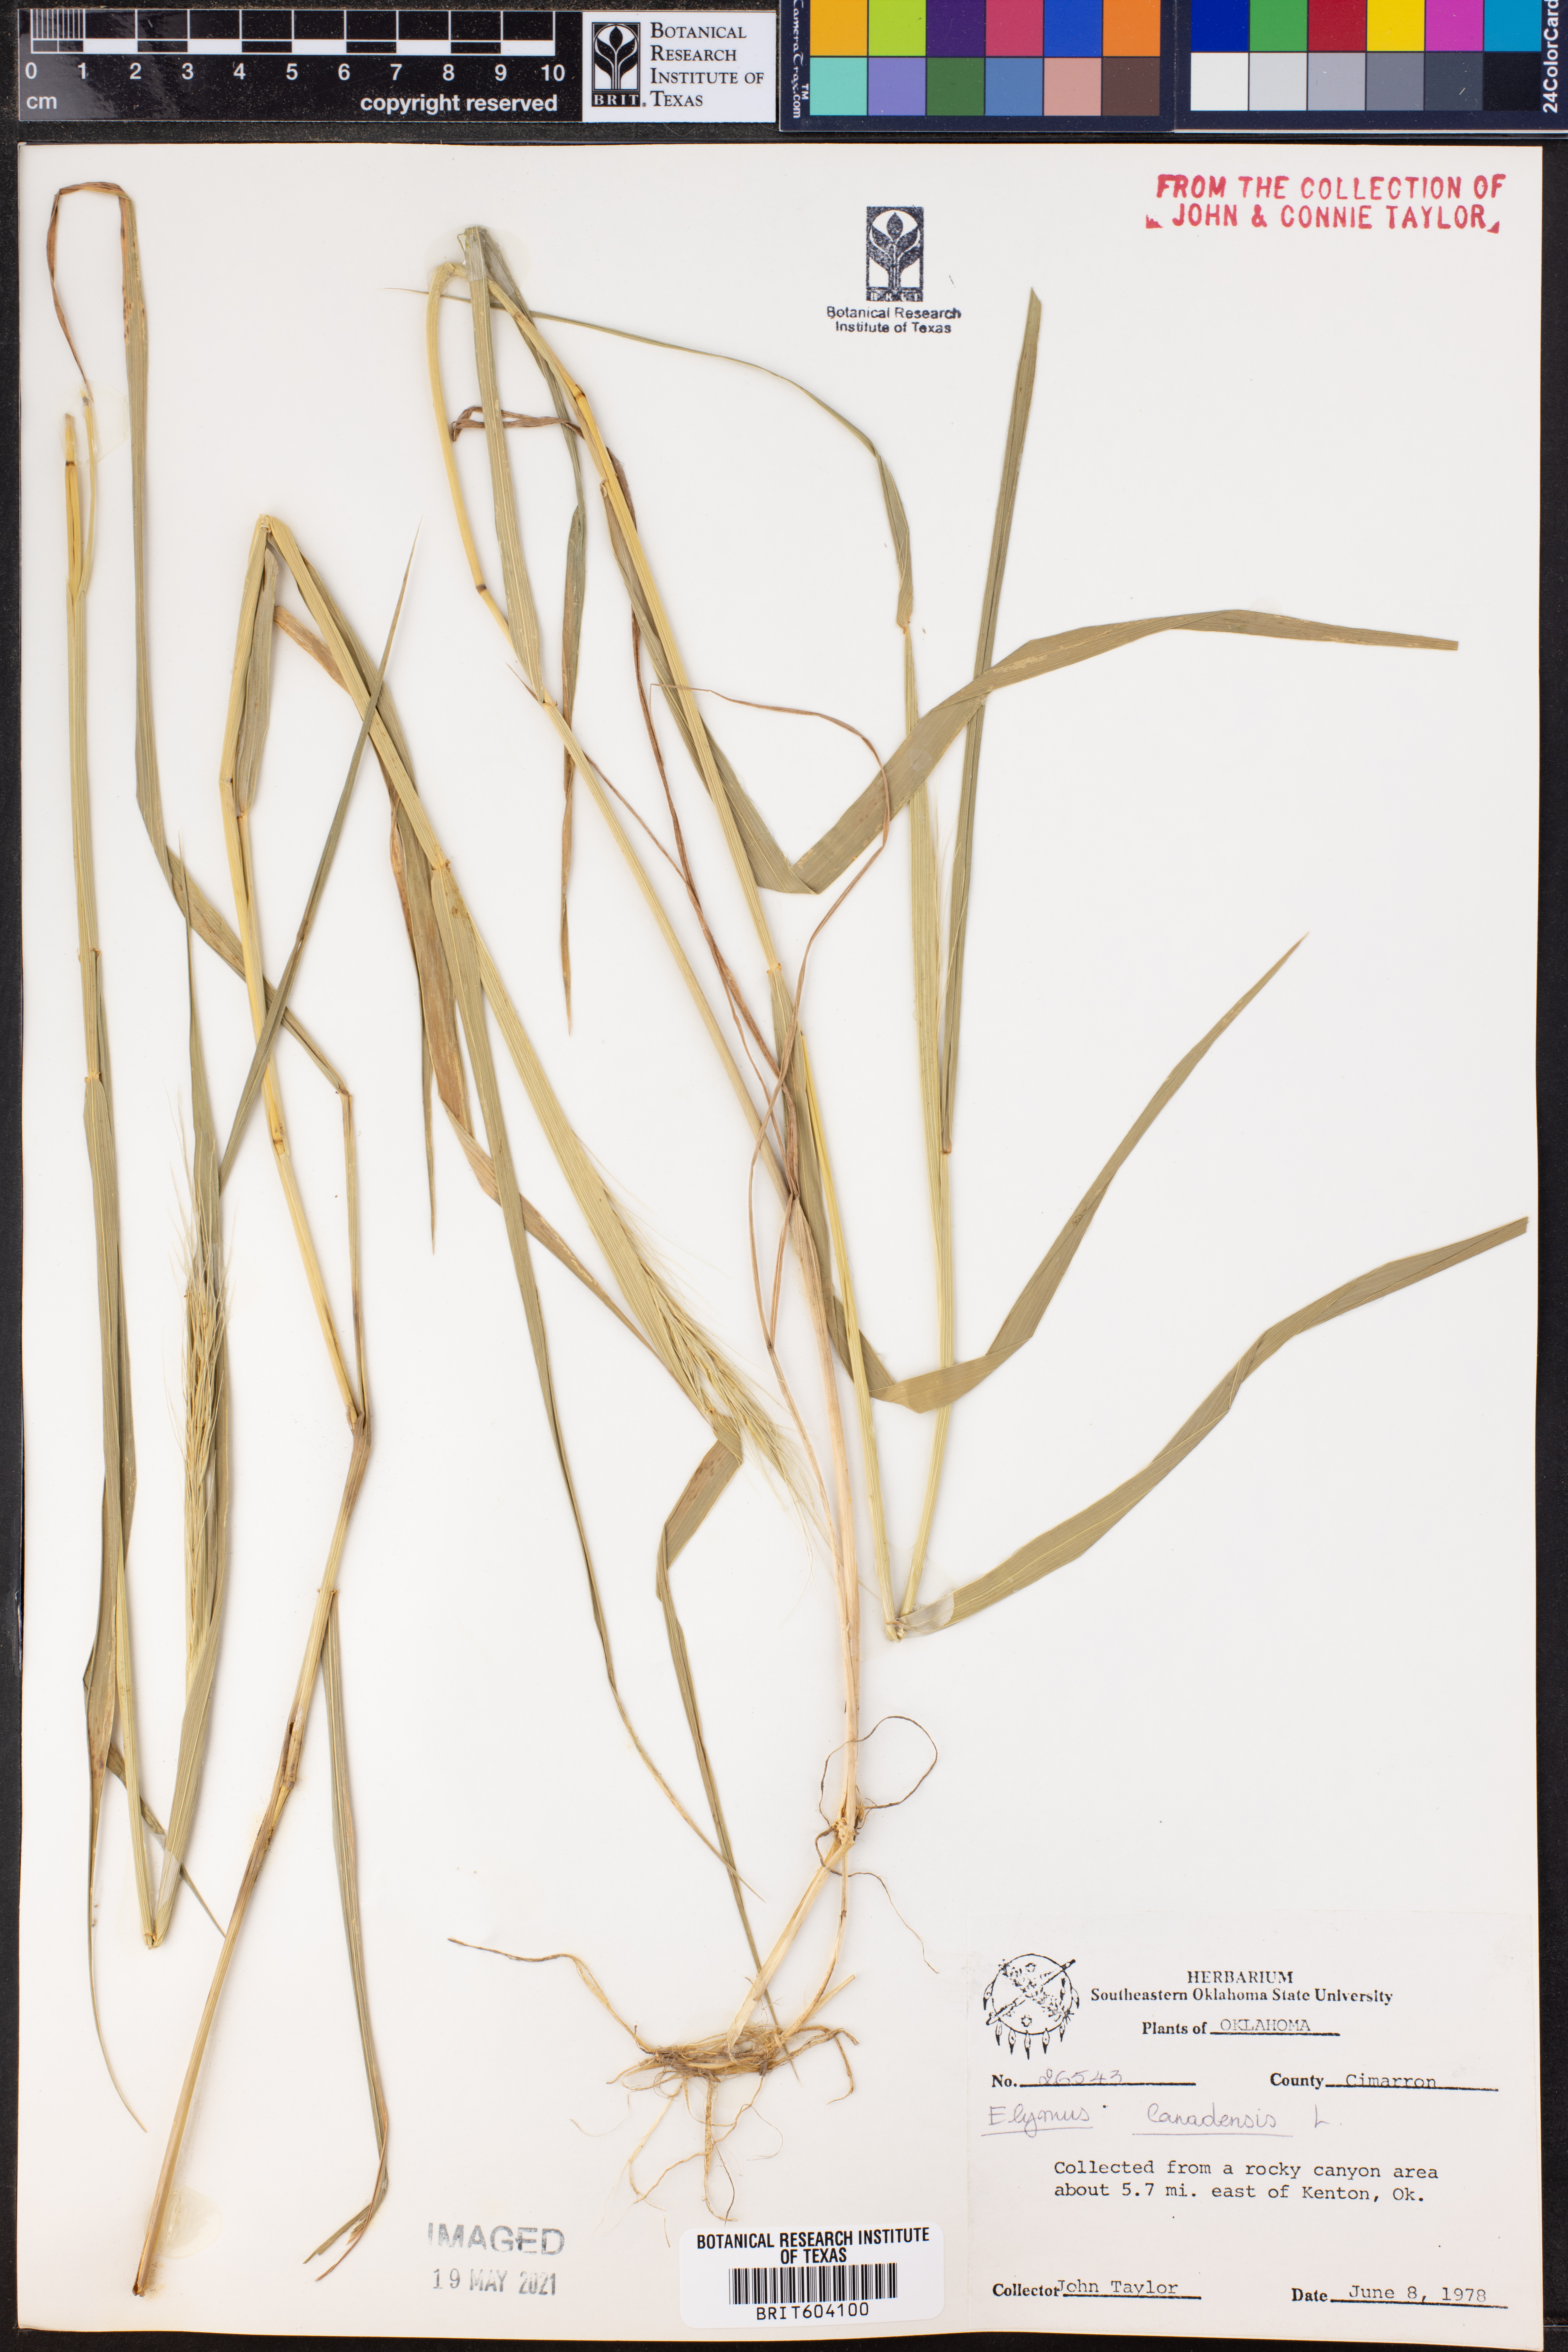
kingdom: Plantae
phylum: Tracheophyta
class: Liliopsida
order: Poales
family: Poaceae
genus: Elymus
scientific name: Elymus canadensis
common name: Canada wild rye
